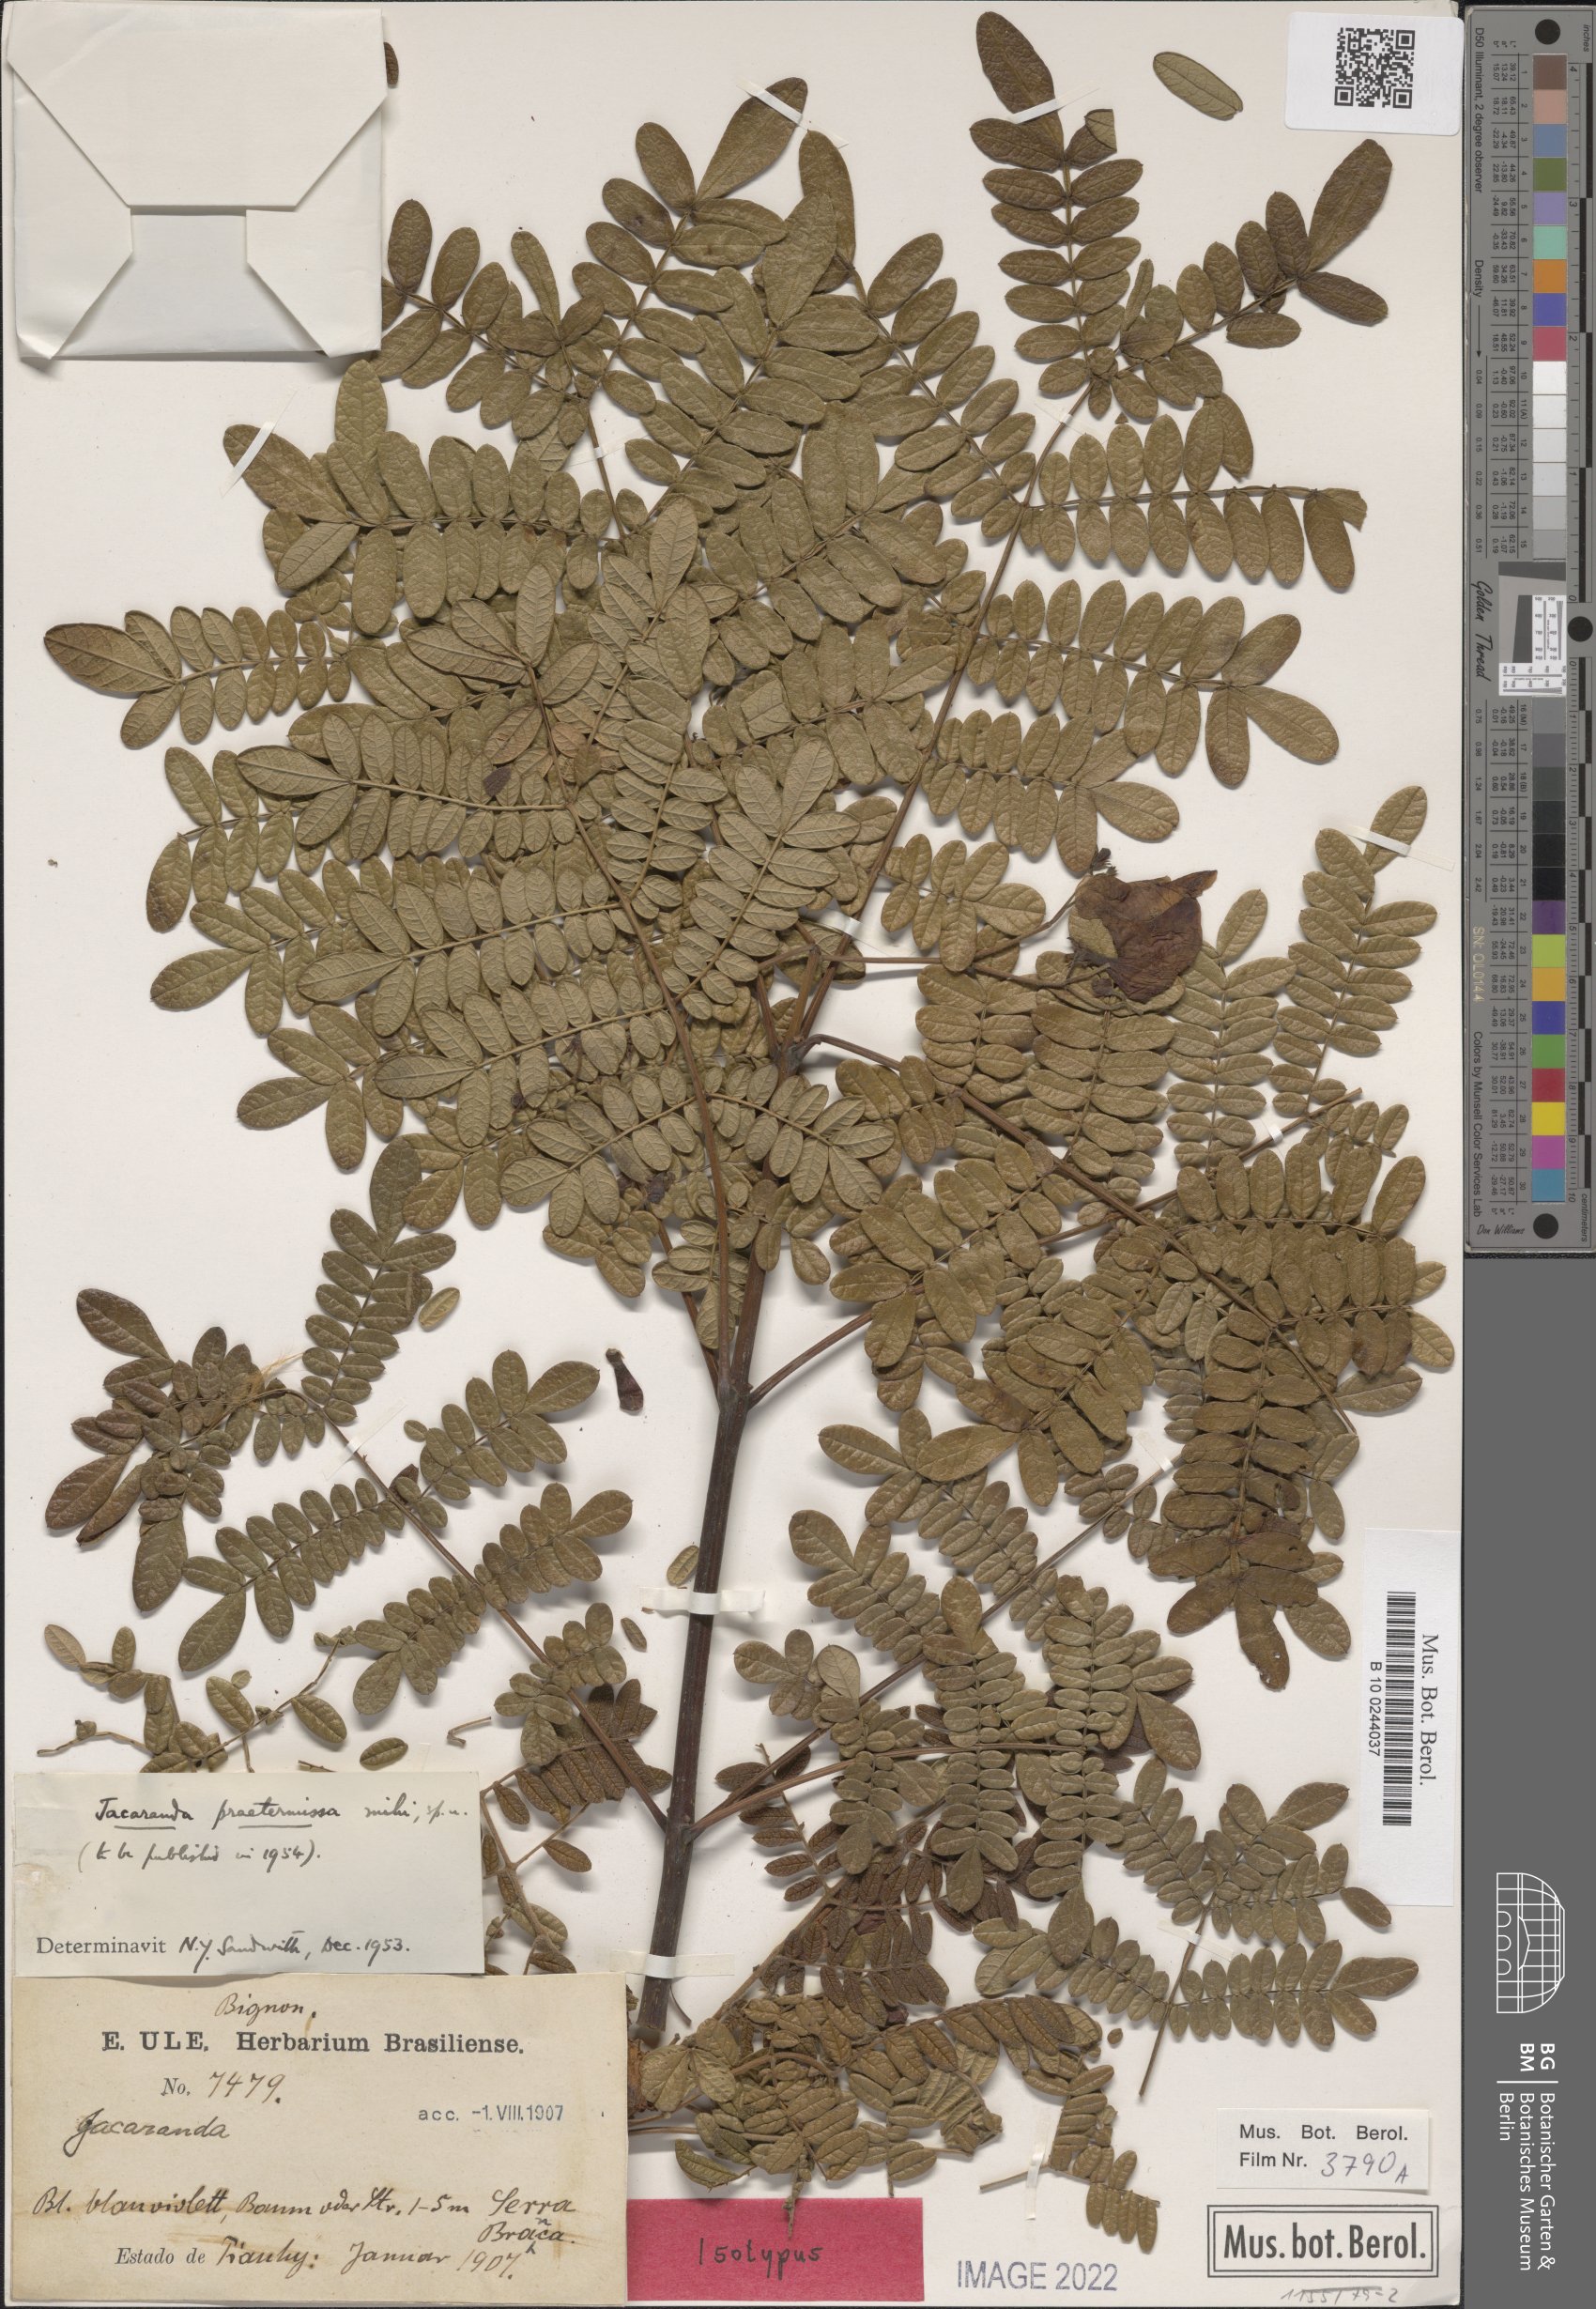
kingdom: Plantae
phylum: Tracheophyta
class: Magnoliopsida
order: Lamiales
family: Bignoniaceae
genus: Jacaranda
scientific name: Jacaranda praetermissa
